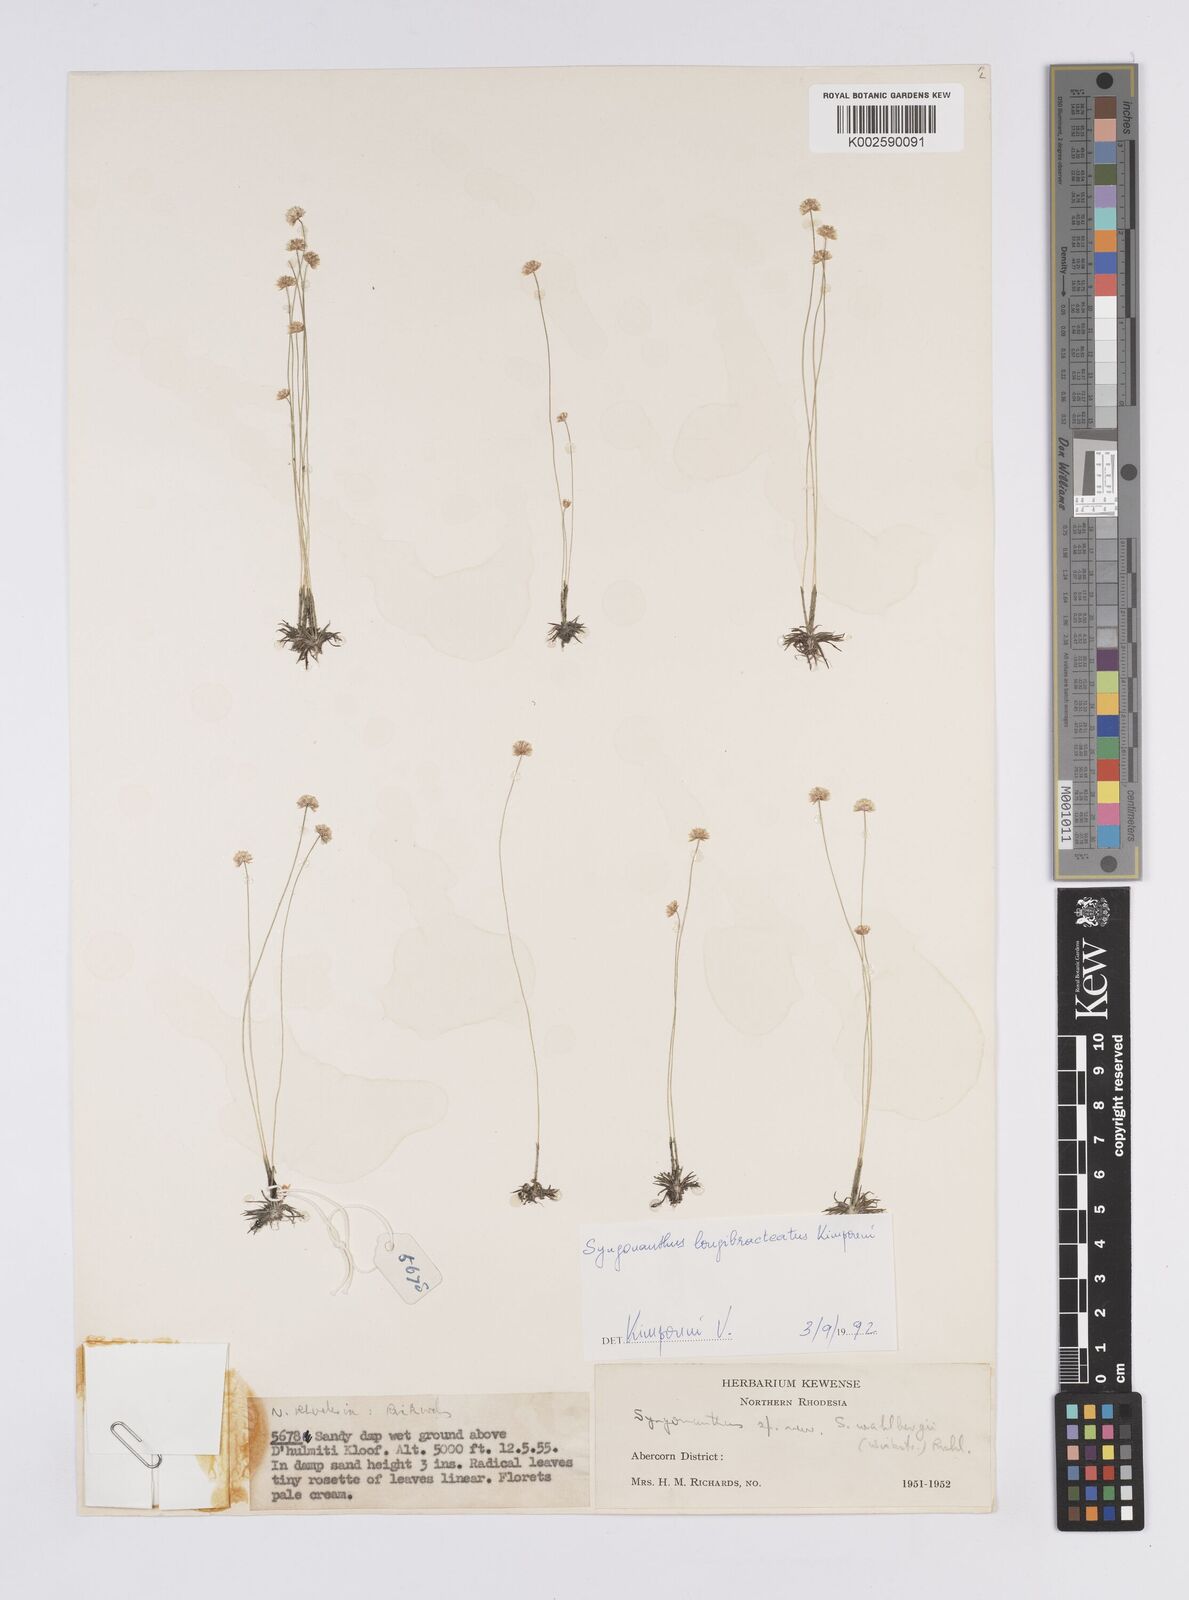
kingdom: Plantae
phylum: Tracheophyta
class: Liliopsida
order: Poales
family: Eriocaulaceae
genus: Syngonanthus
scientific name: Syngonanthus longibracteatus
